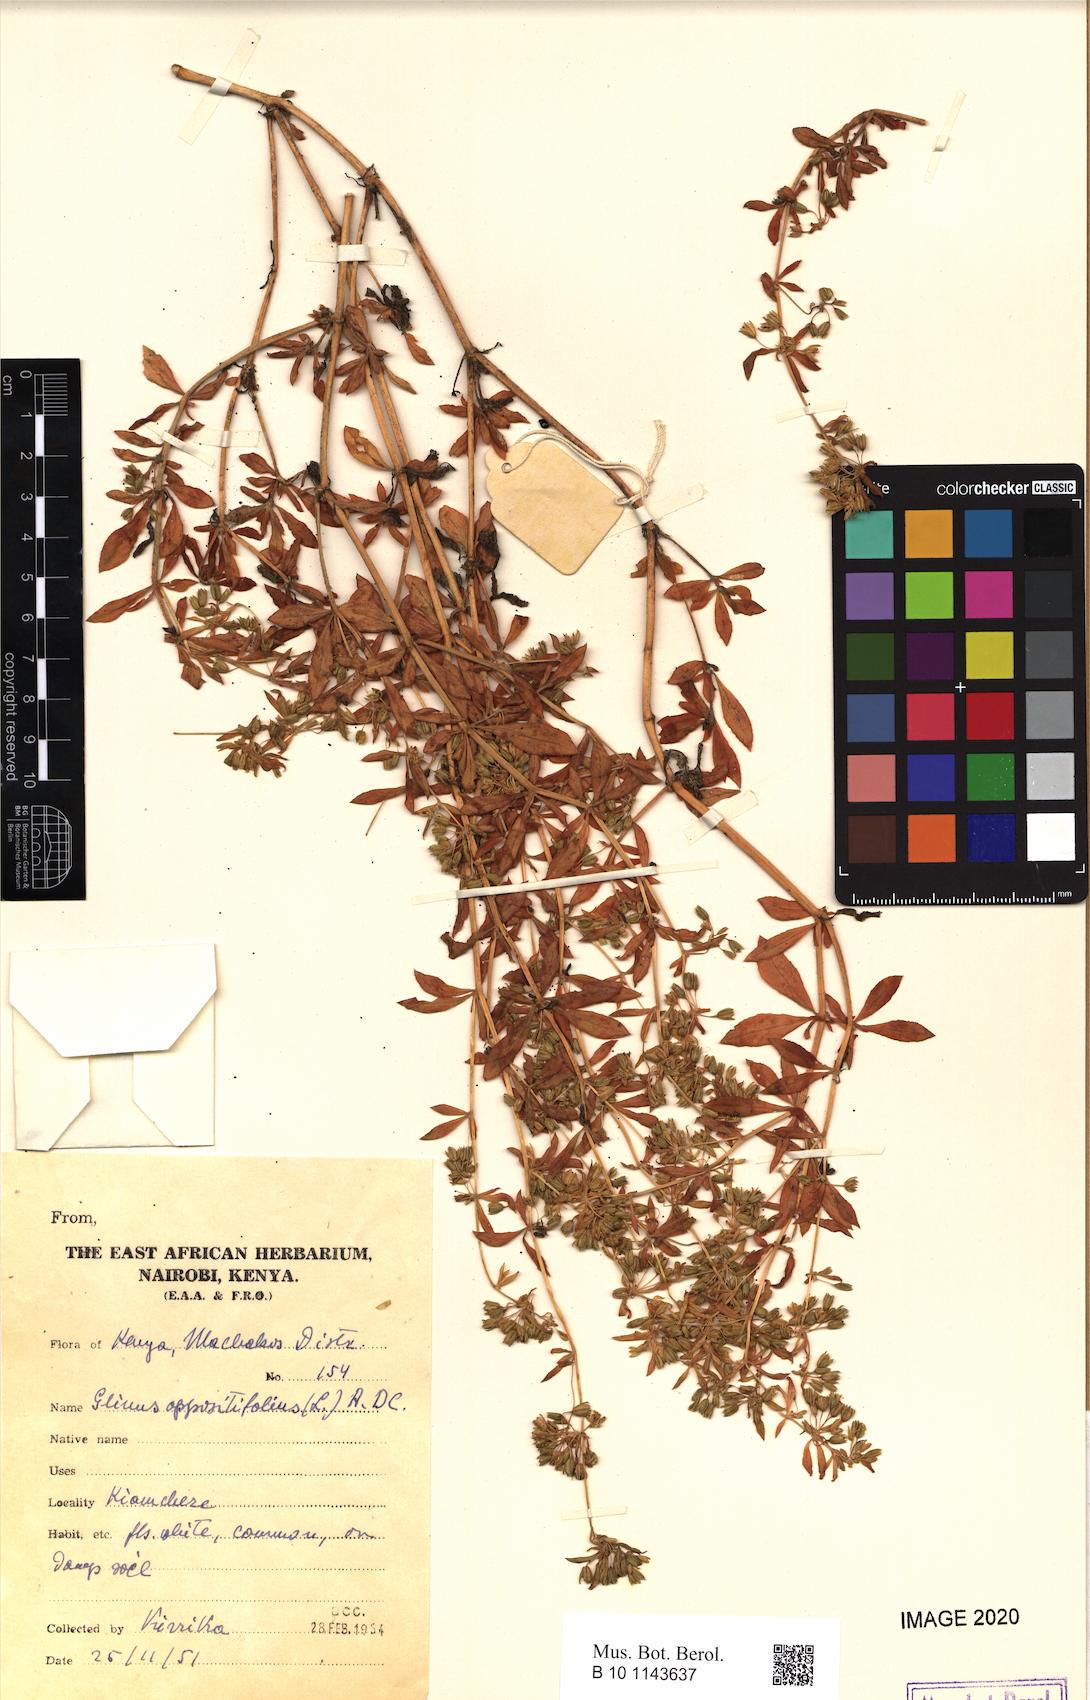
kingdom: Plantae
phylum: Tracheophyta
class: Magnoliopsida
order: Caryophyllales
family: Molluginaceae
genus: Glinus
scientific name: Glinus oppositifolius
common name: Slender carpetweed
